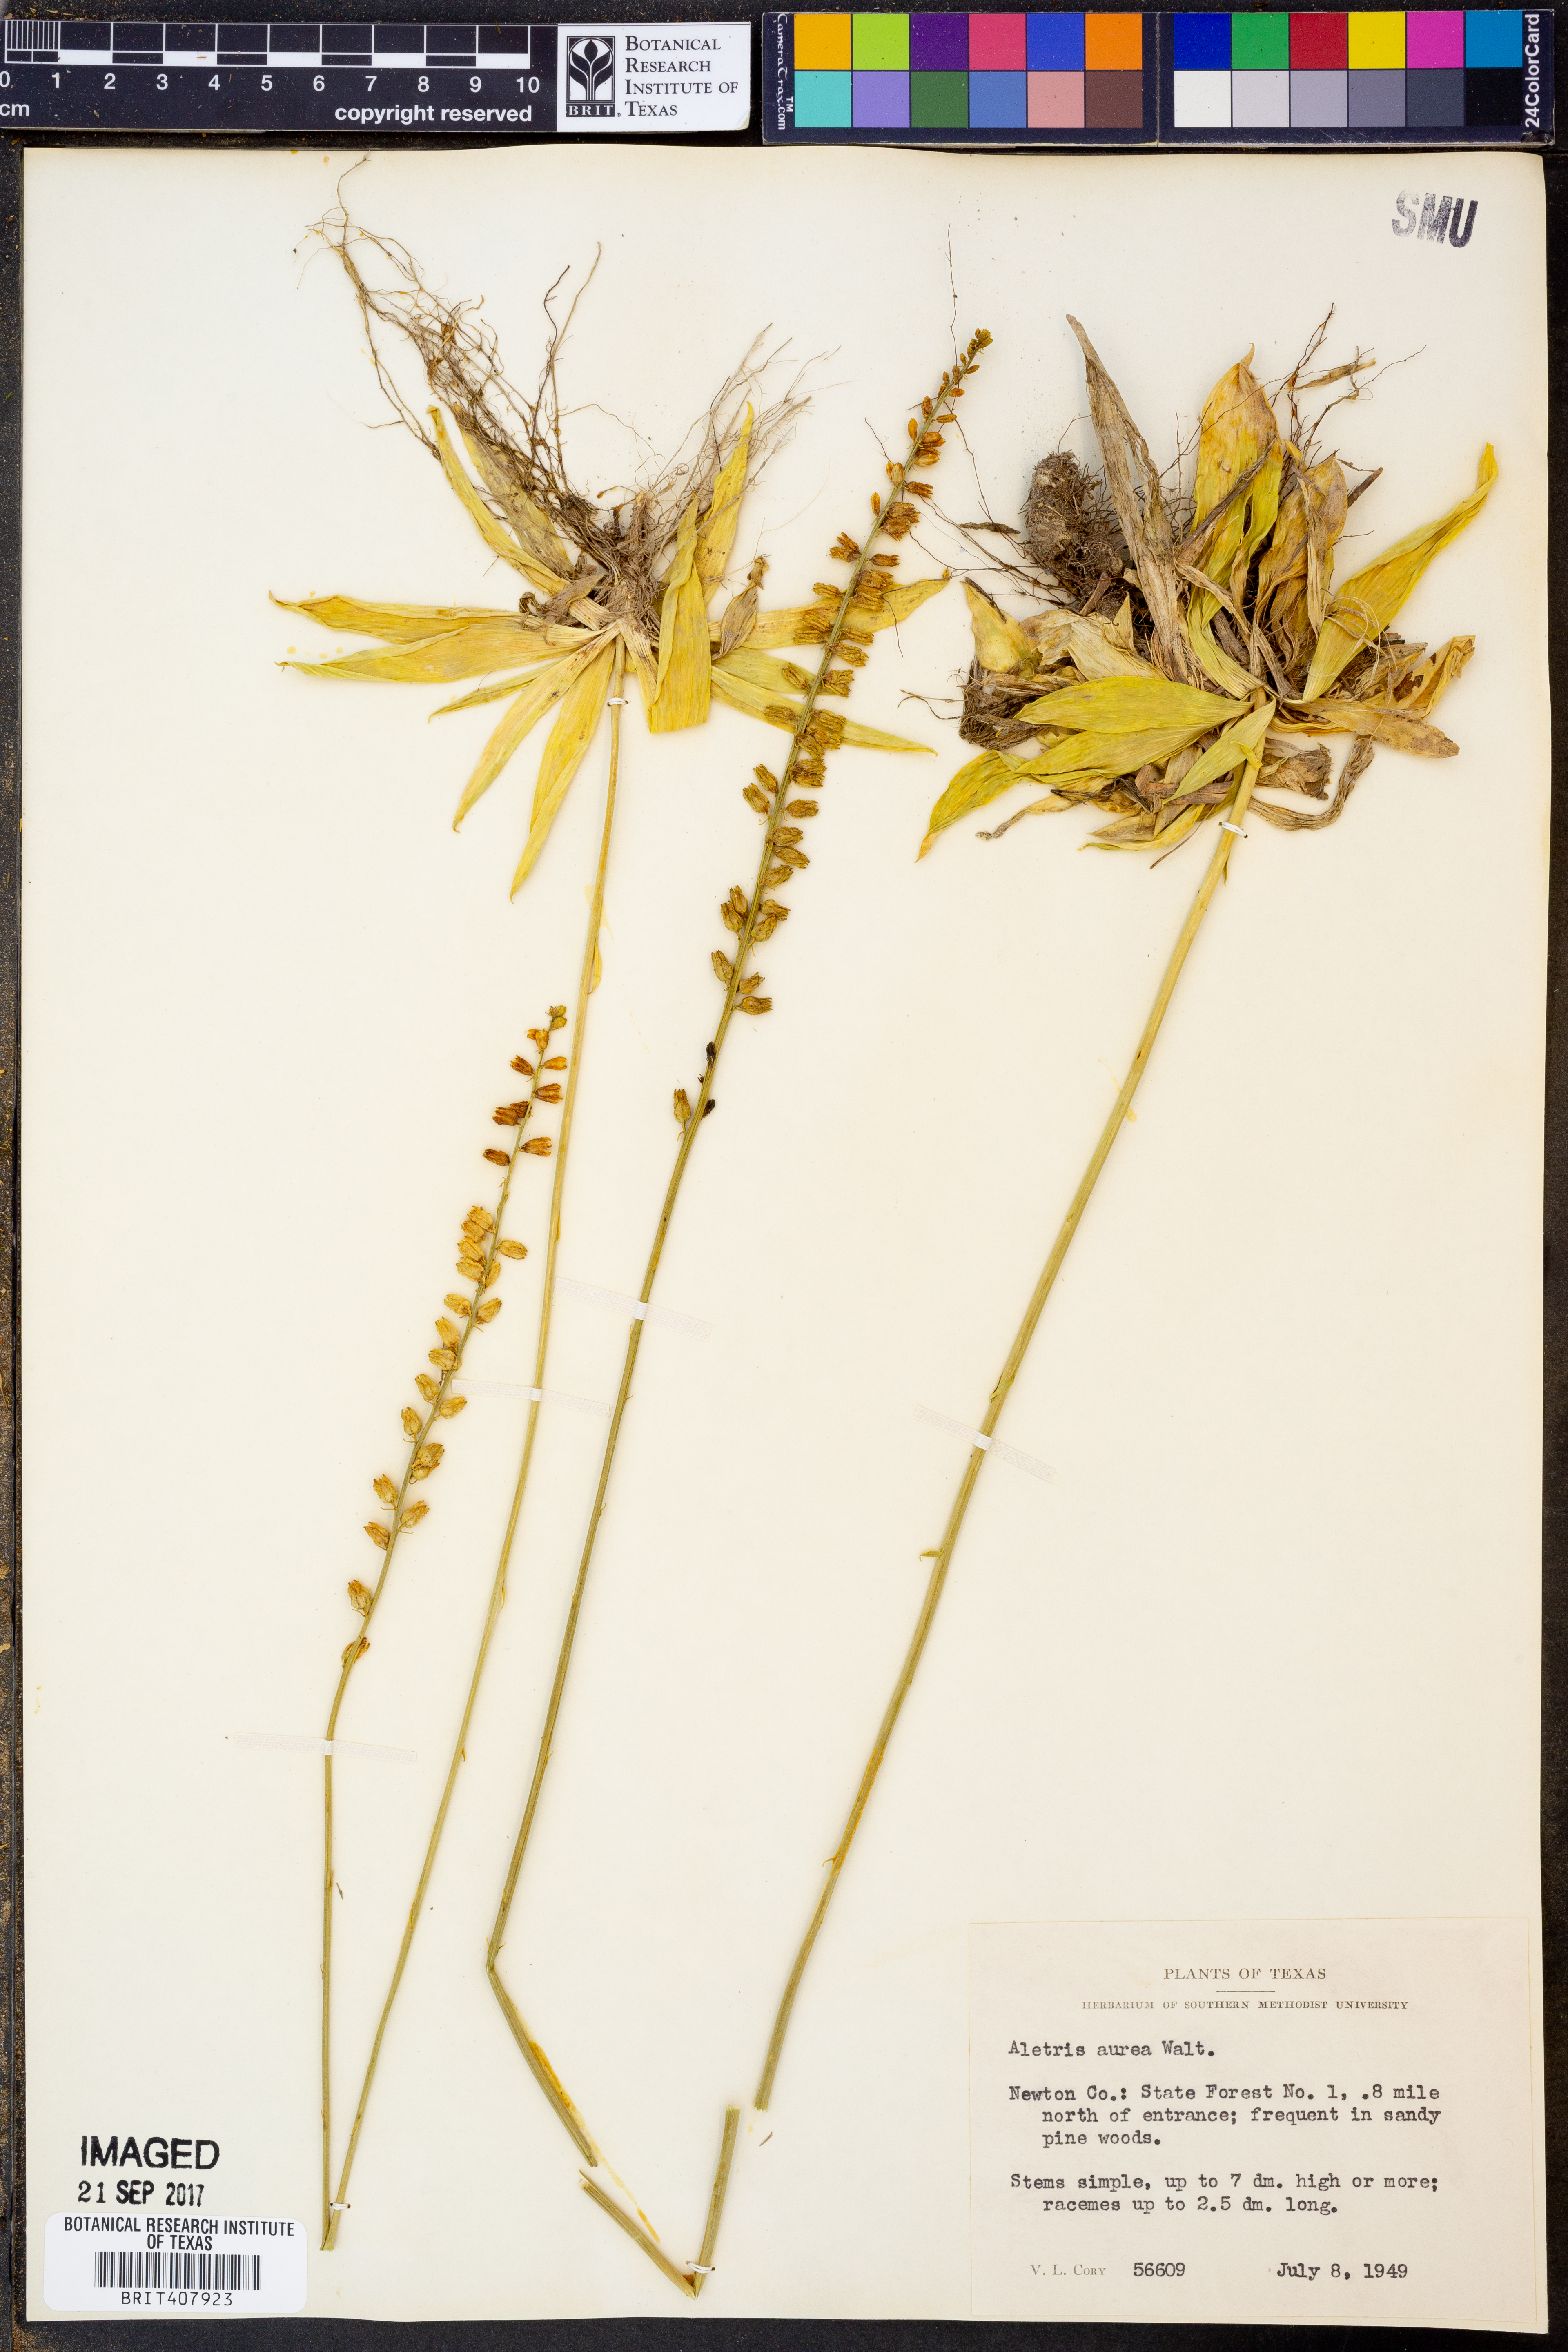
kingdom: Plantae
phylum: Tracheophyta
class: Liliopsida
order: Dioscoreales
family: Nartheciaceae
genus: Aletris
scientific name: Aletris aurea
